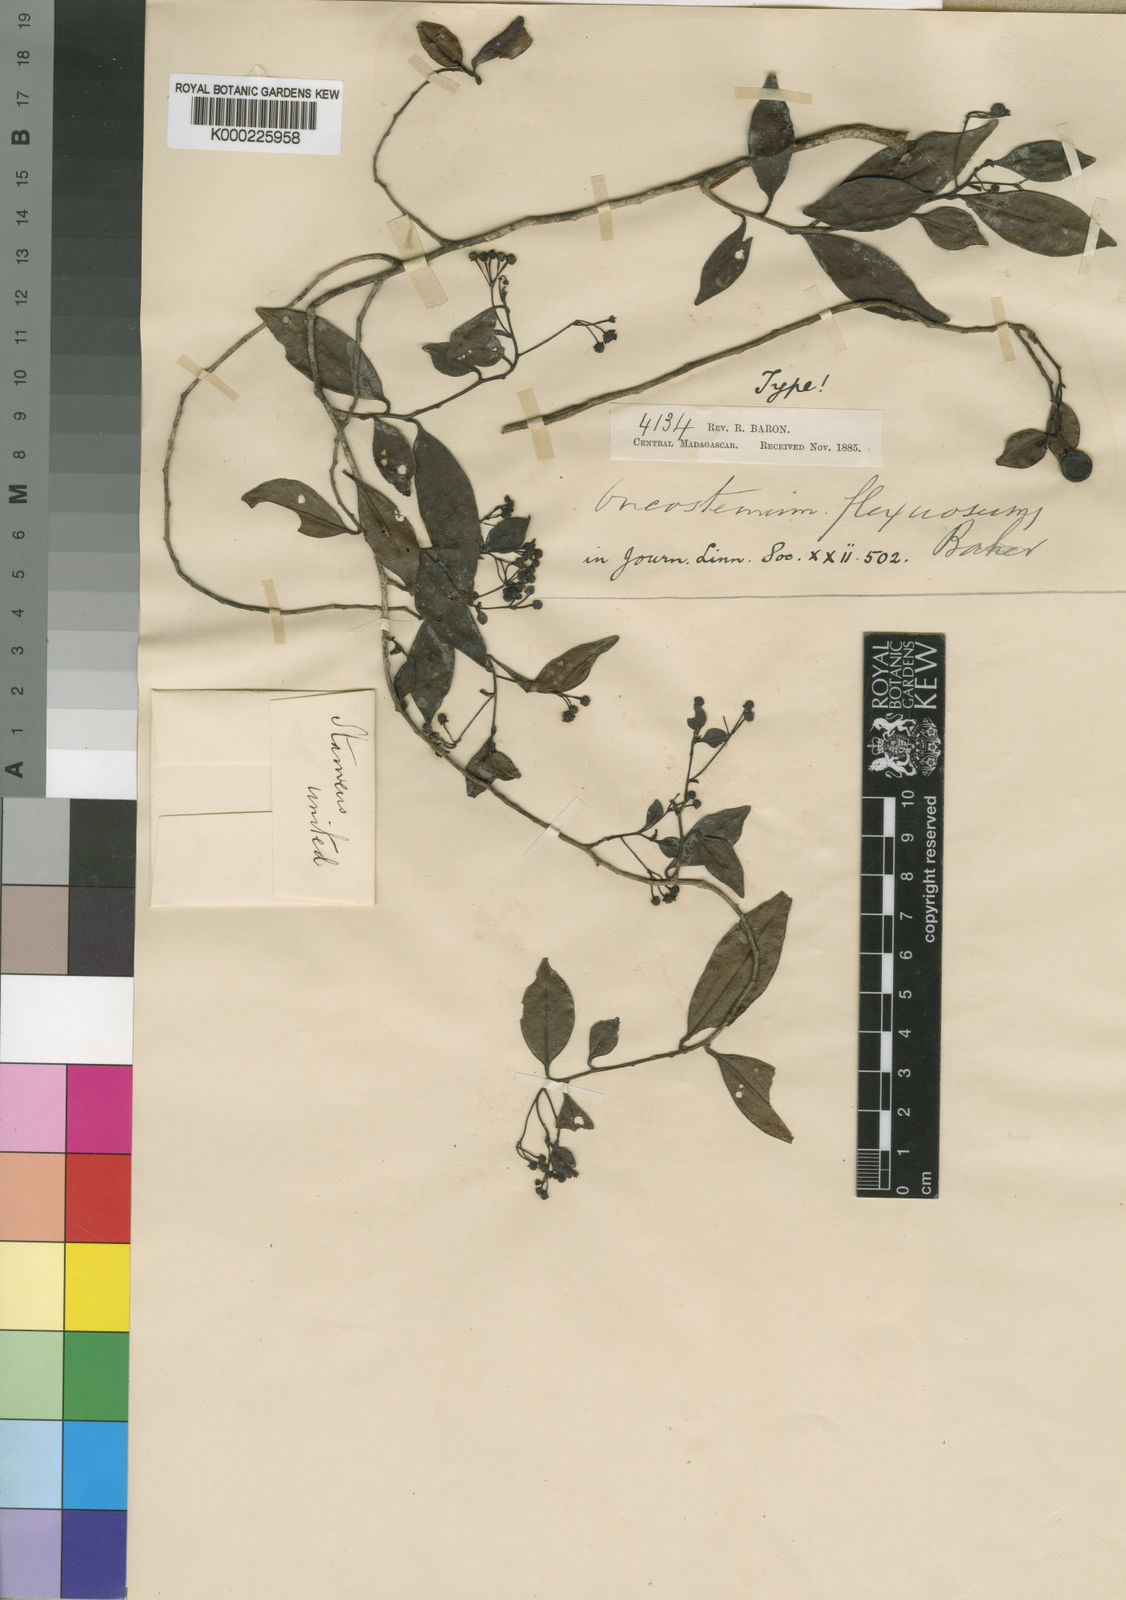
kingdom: Plantae
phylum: Tracheophyta
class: Magnoliopsida
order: Ericales
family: Primulaceae
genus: Oncostemum
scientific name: Oncostemum flexuosum
